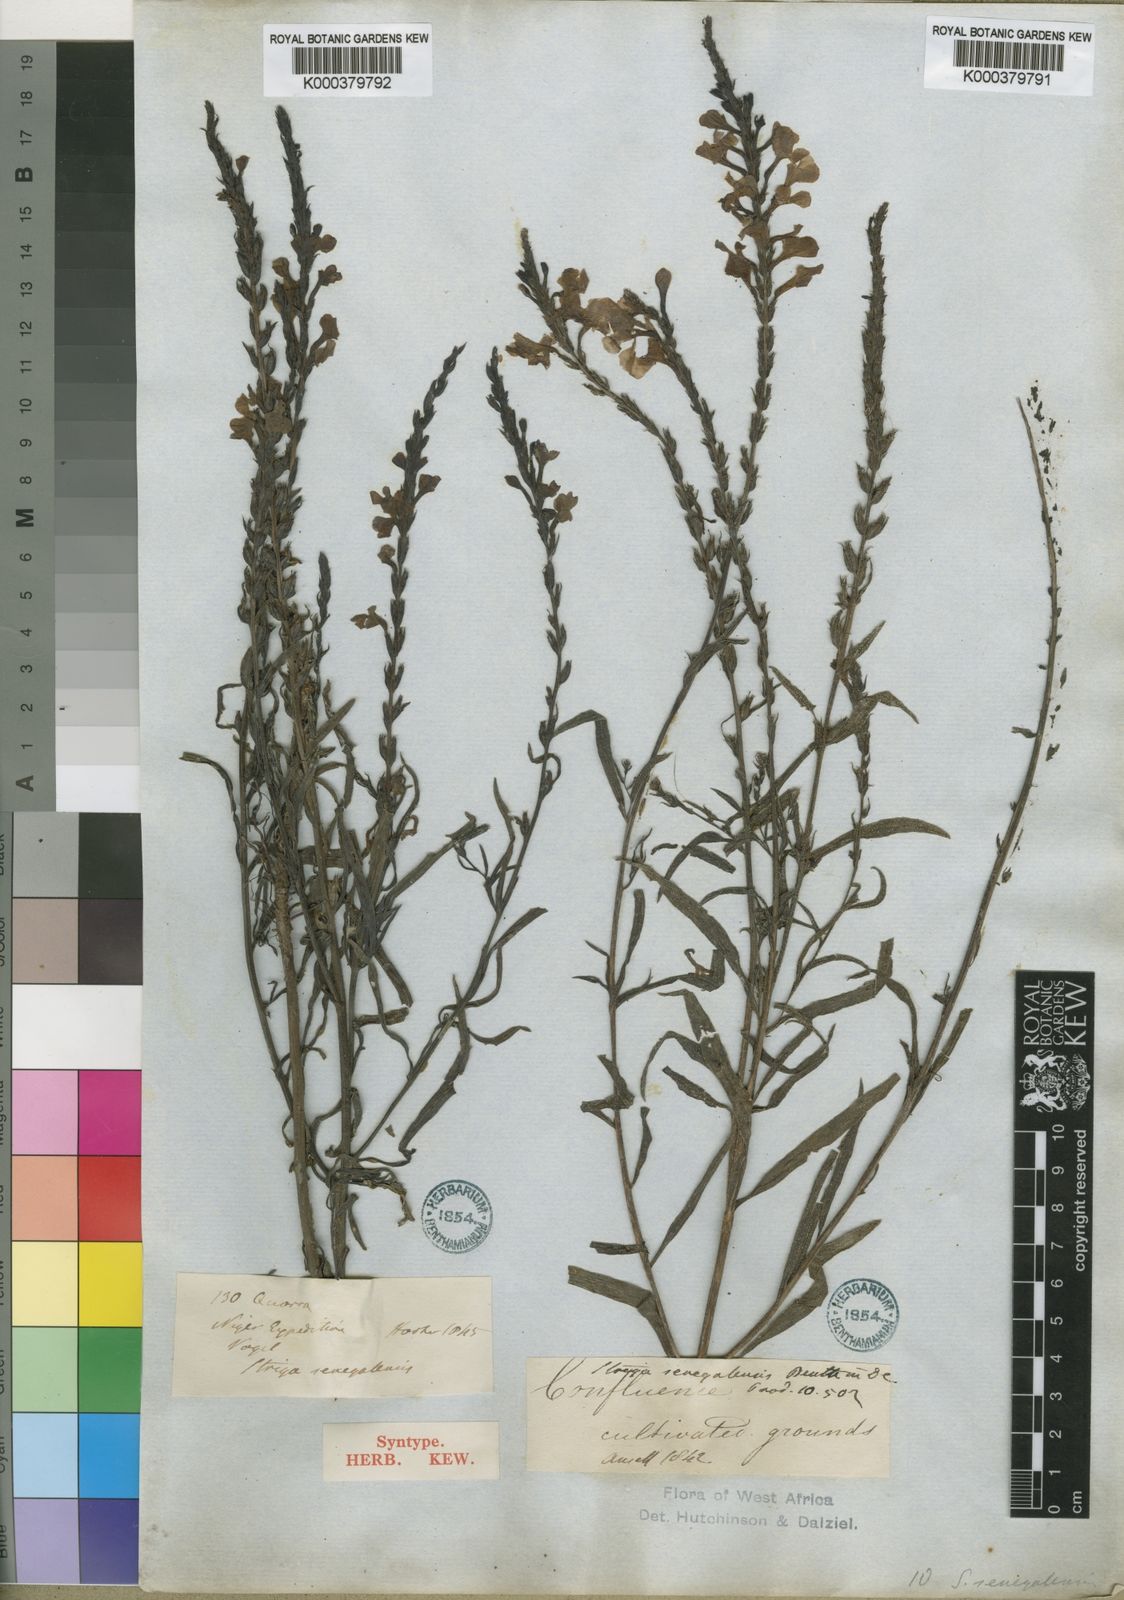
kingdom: Plantae
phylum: Tracheophyta
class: Magnoliopsida
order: Lamiales
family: Orobanchaceae
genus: Striga
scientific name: Striga hermonthica
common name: Purple witchweed
